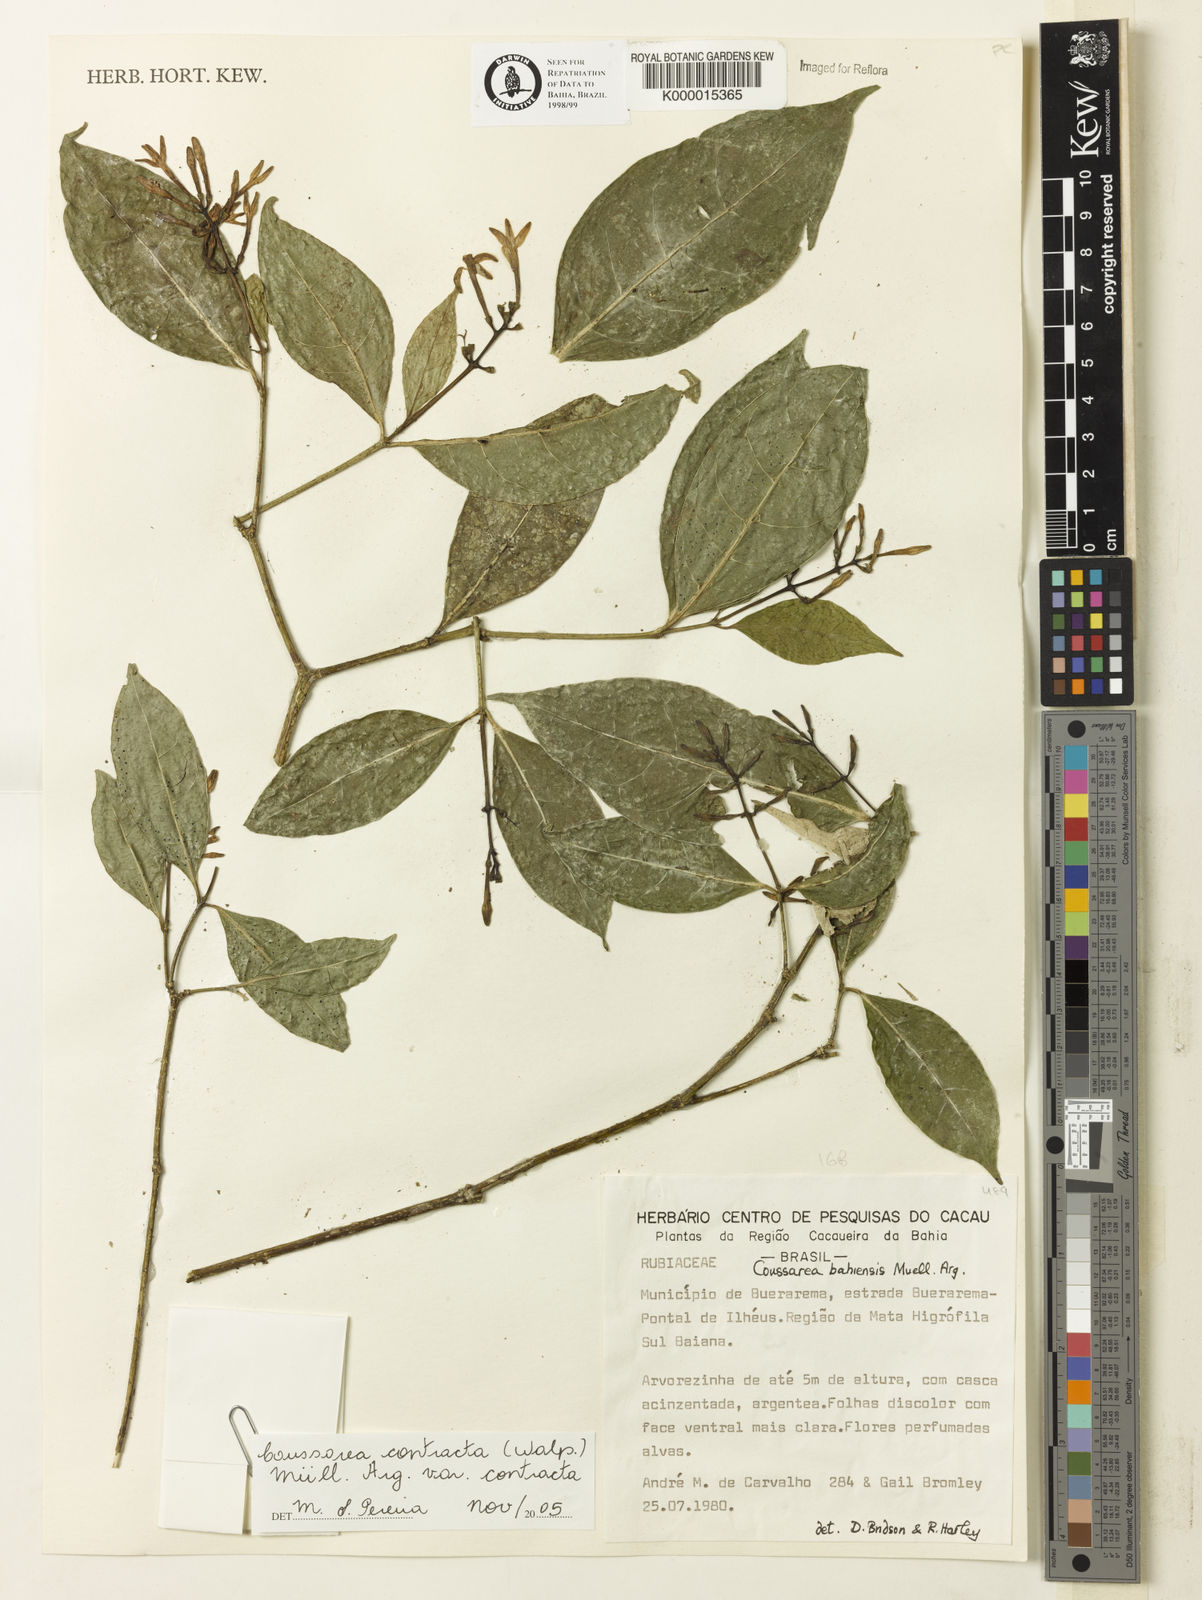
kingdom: Plantae
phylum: Tracheophyta
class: Magnoliopsida
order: Gentianales
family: Rubiaceae
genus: Coussarea
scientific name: Coussarea bahiensis
